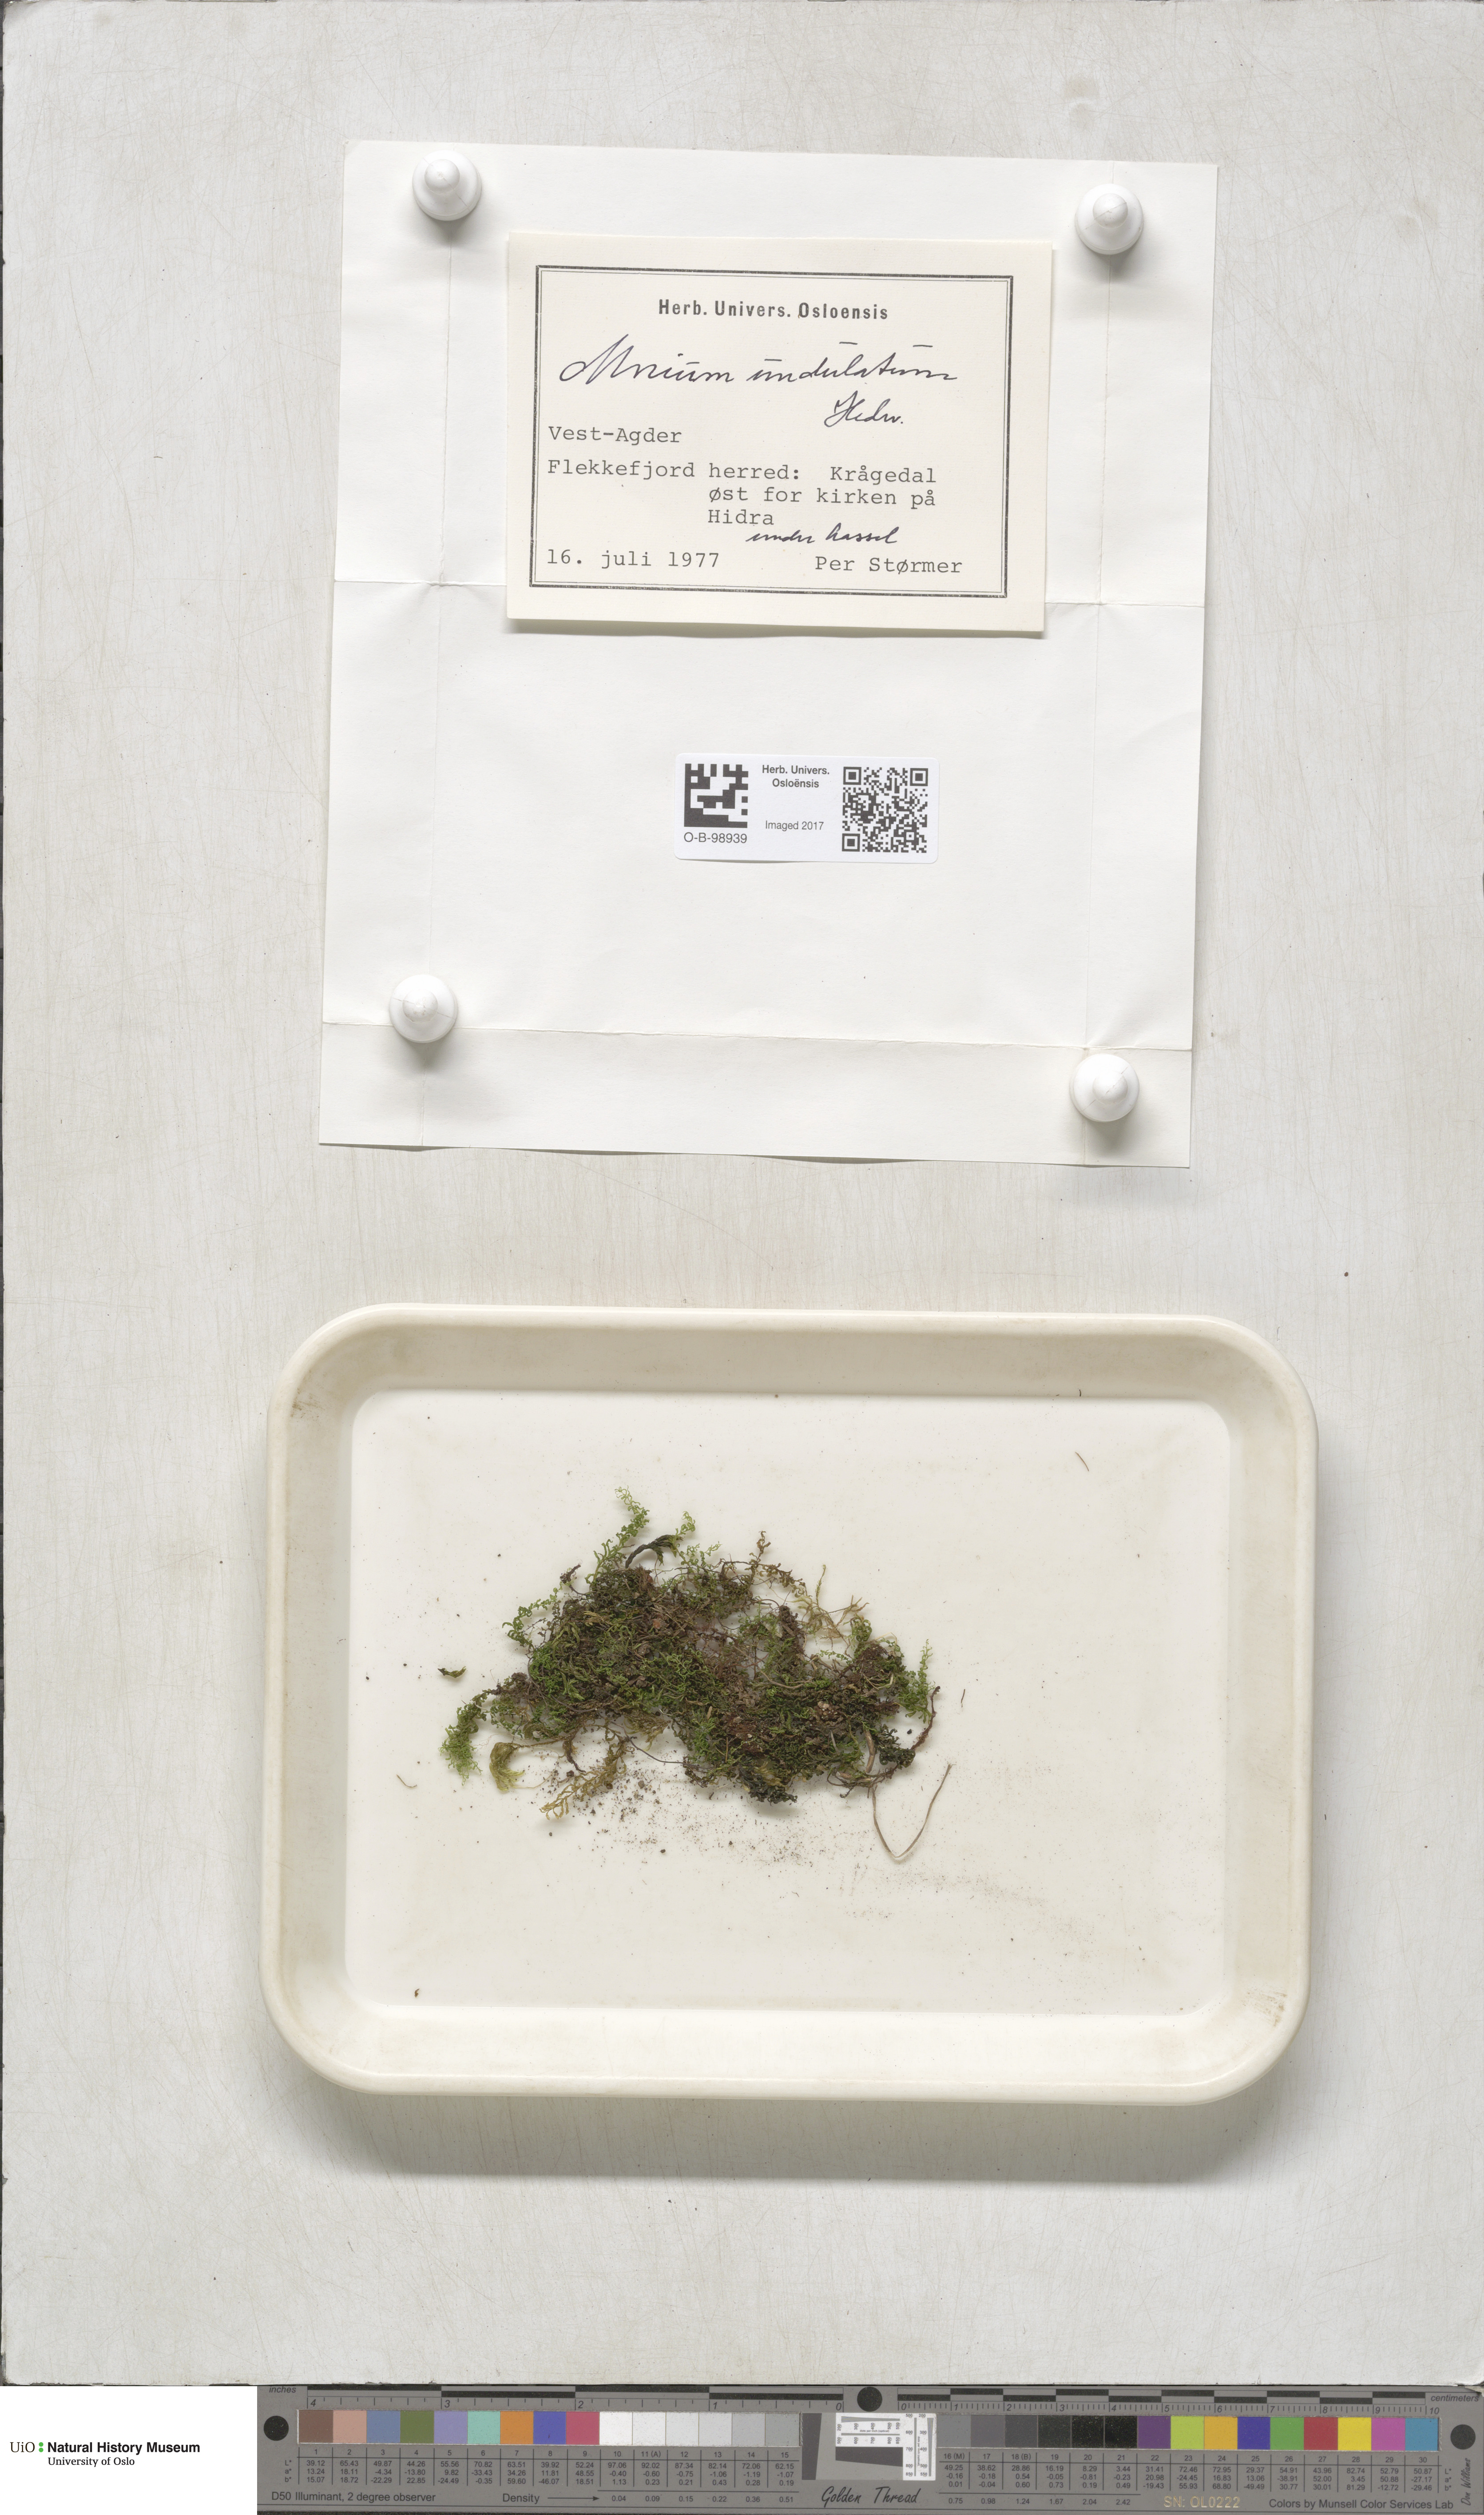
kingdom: Plantae
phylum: Bryophyta
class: Bryopsida
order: Bryales
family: Mniaceae
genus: Plagiomnium
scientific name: Plagiomnium undulatum
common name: Hart's-tongue thyme-moss
